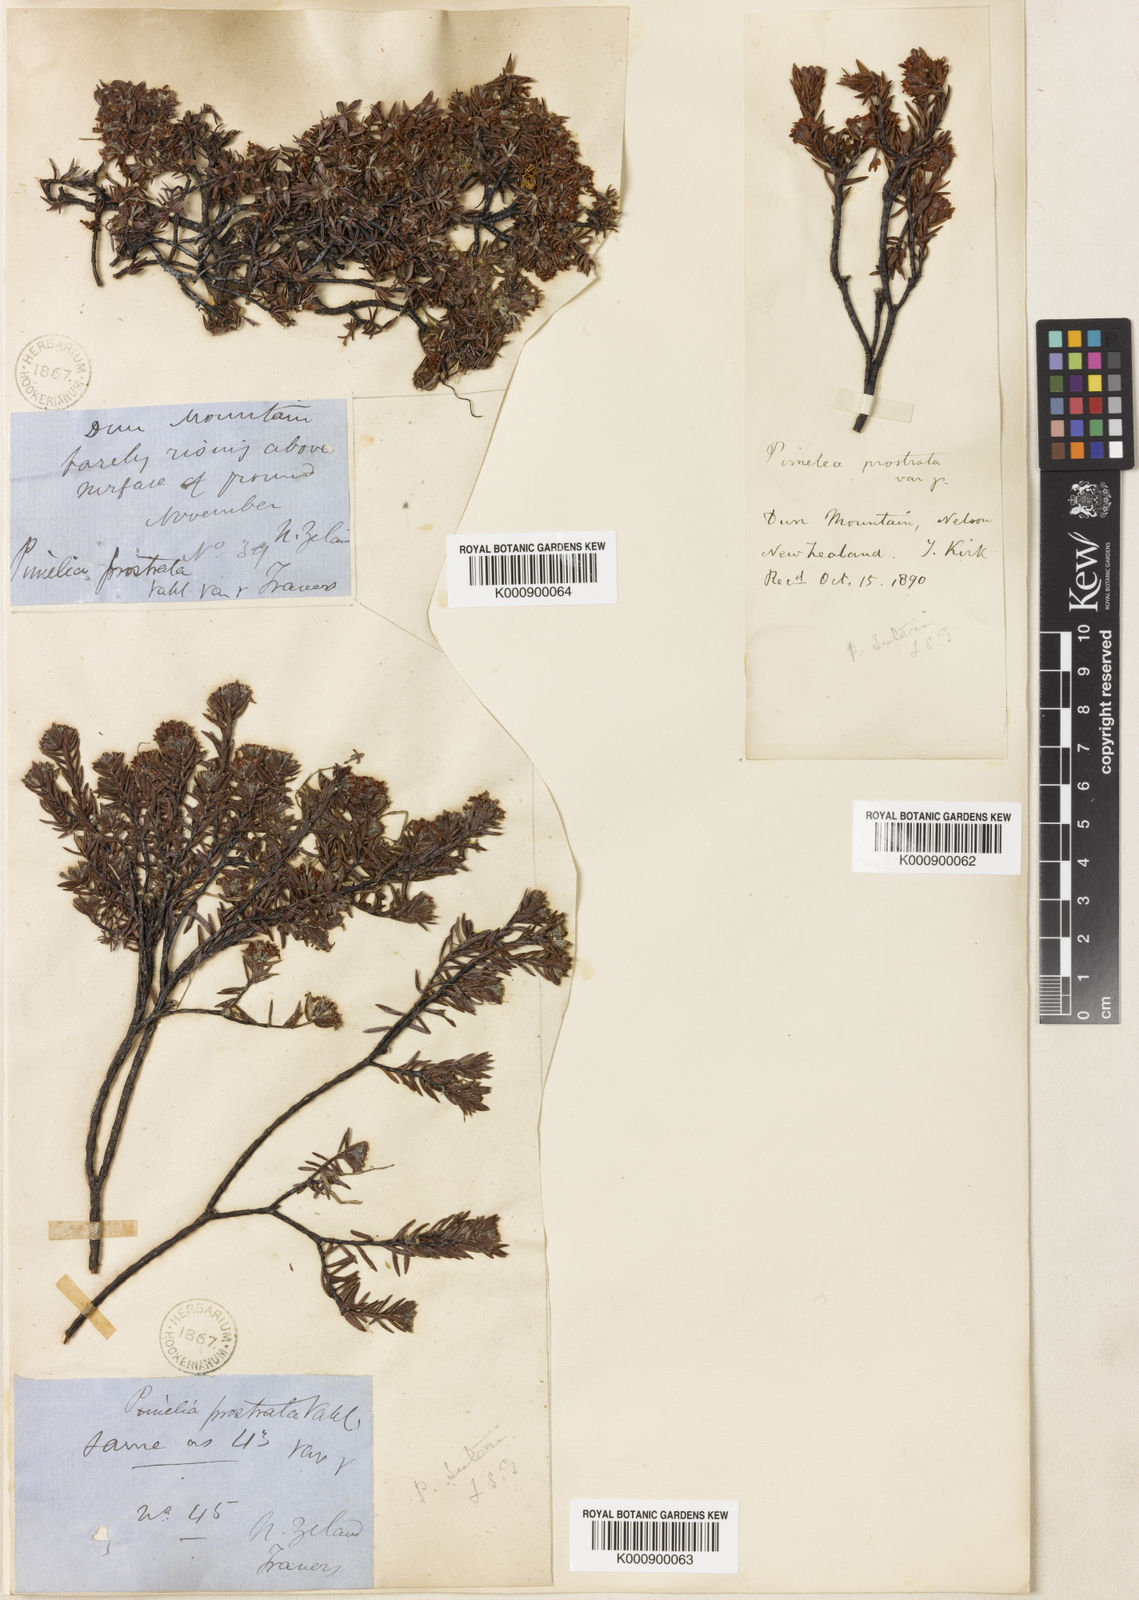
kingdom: Plantae
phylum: Tracheophyta
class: Magnoliopsida
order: Malvales
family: Thymelaeaceae
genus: Pimelea
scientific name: Pimelea oreophila
